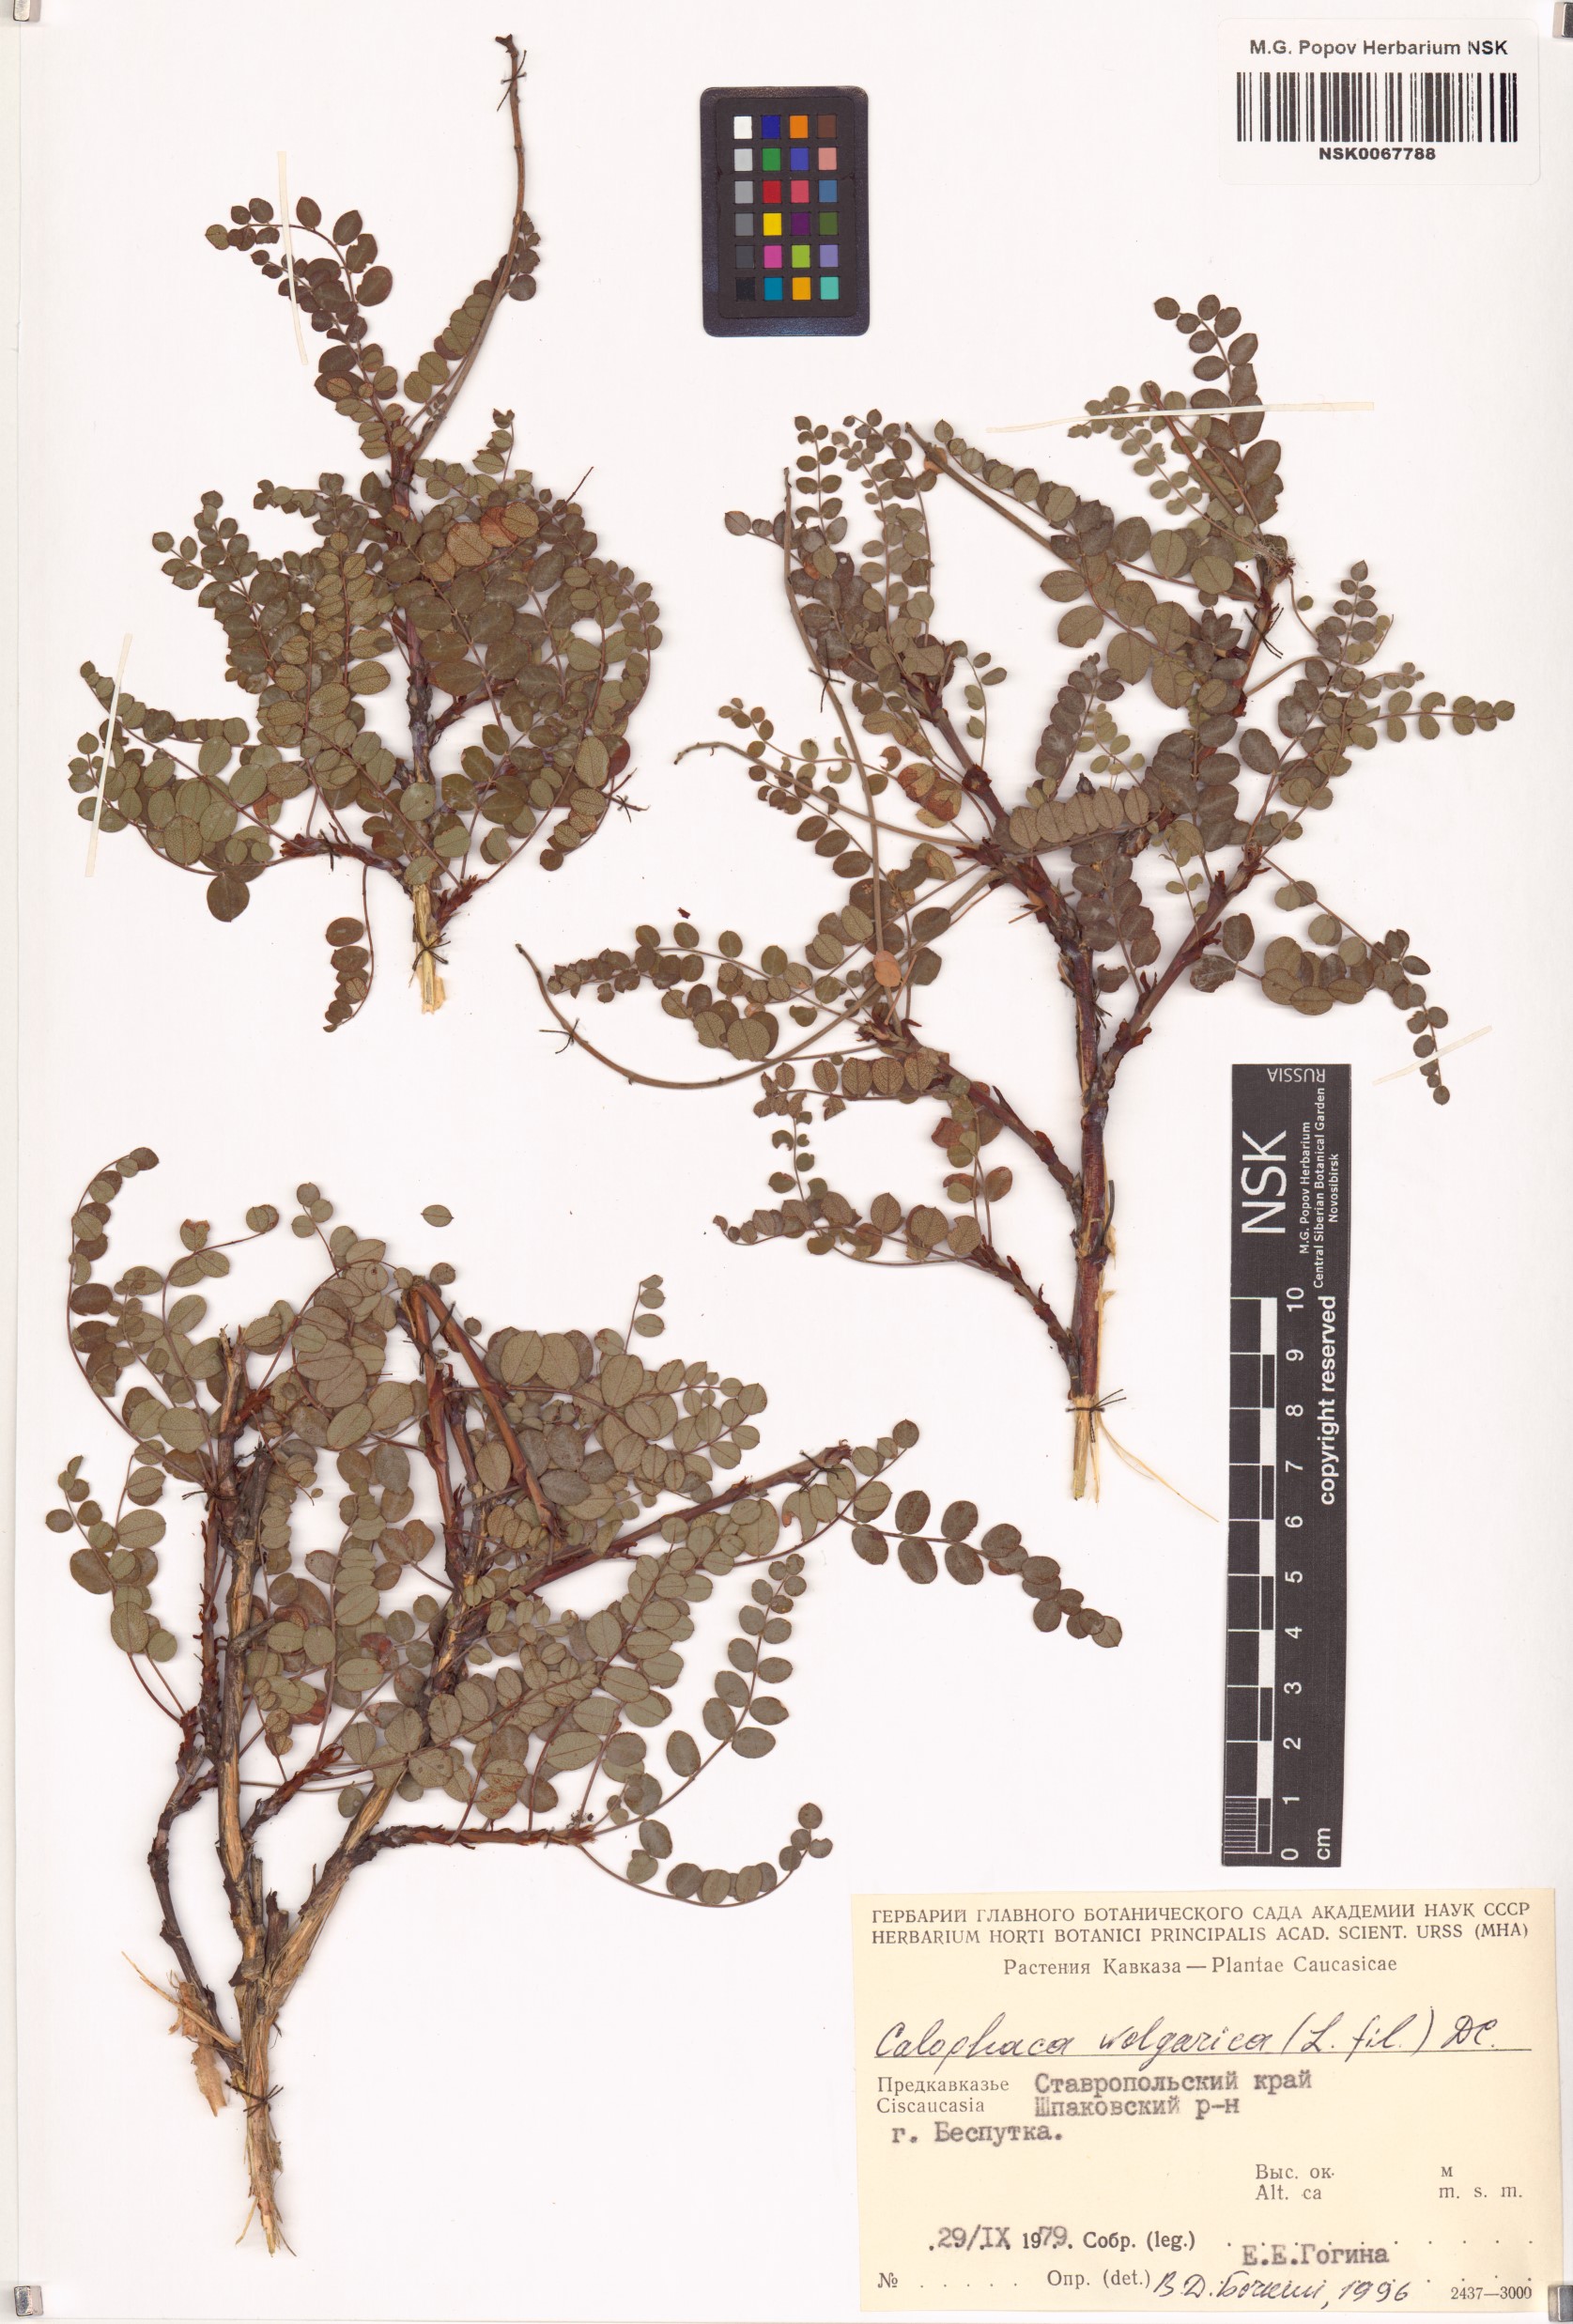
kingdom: Plantae
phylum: Tracheophyta
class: Magnoliopsida
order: Fabales
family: Fabaceae
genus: Calophaca
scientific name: Calophaca wolgarica
